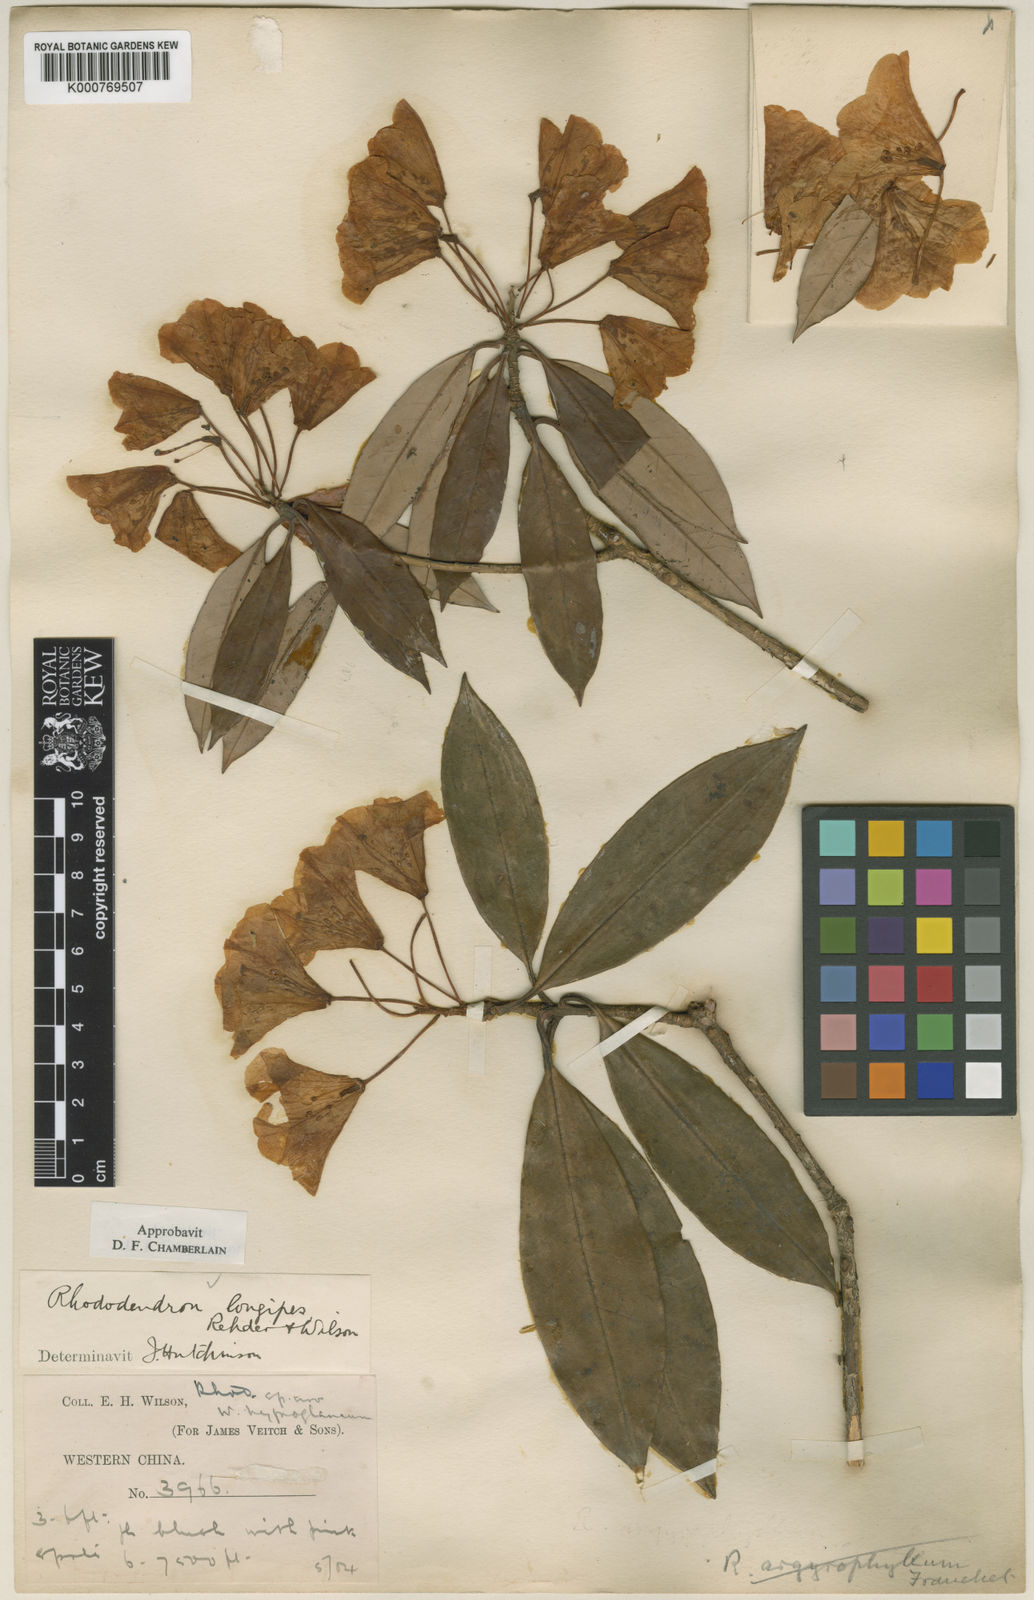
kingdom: Plantae
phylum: Tracheophyta
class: Magnoliopsida
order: Ericales
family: Ericaceae
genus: Rhododendron
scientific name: Rhododendron longipes
